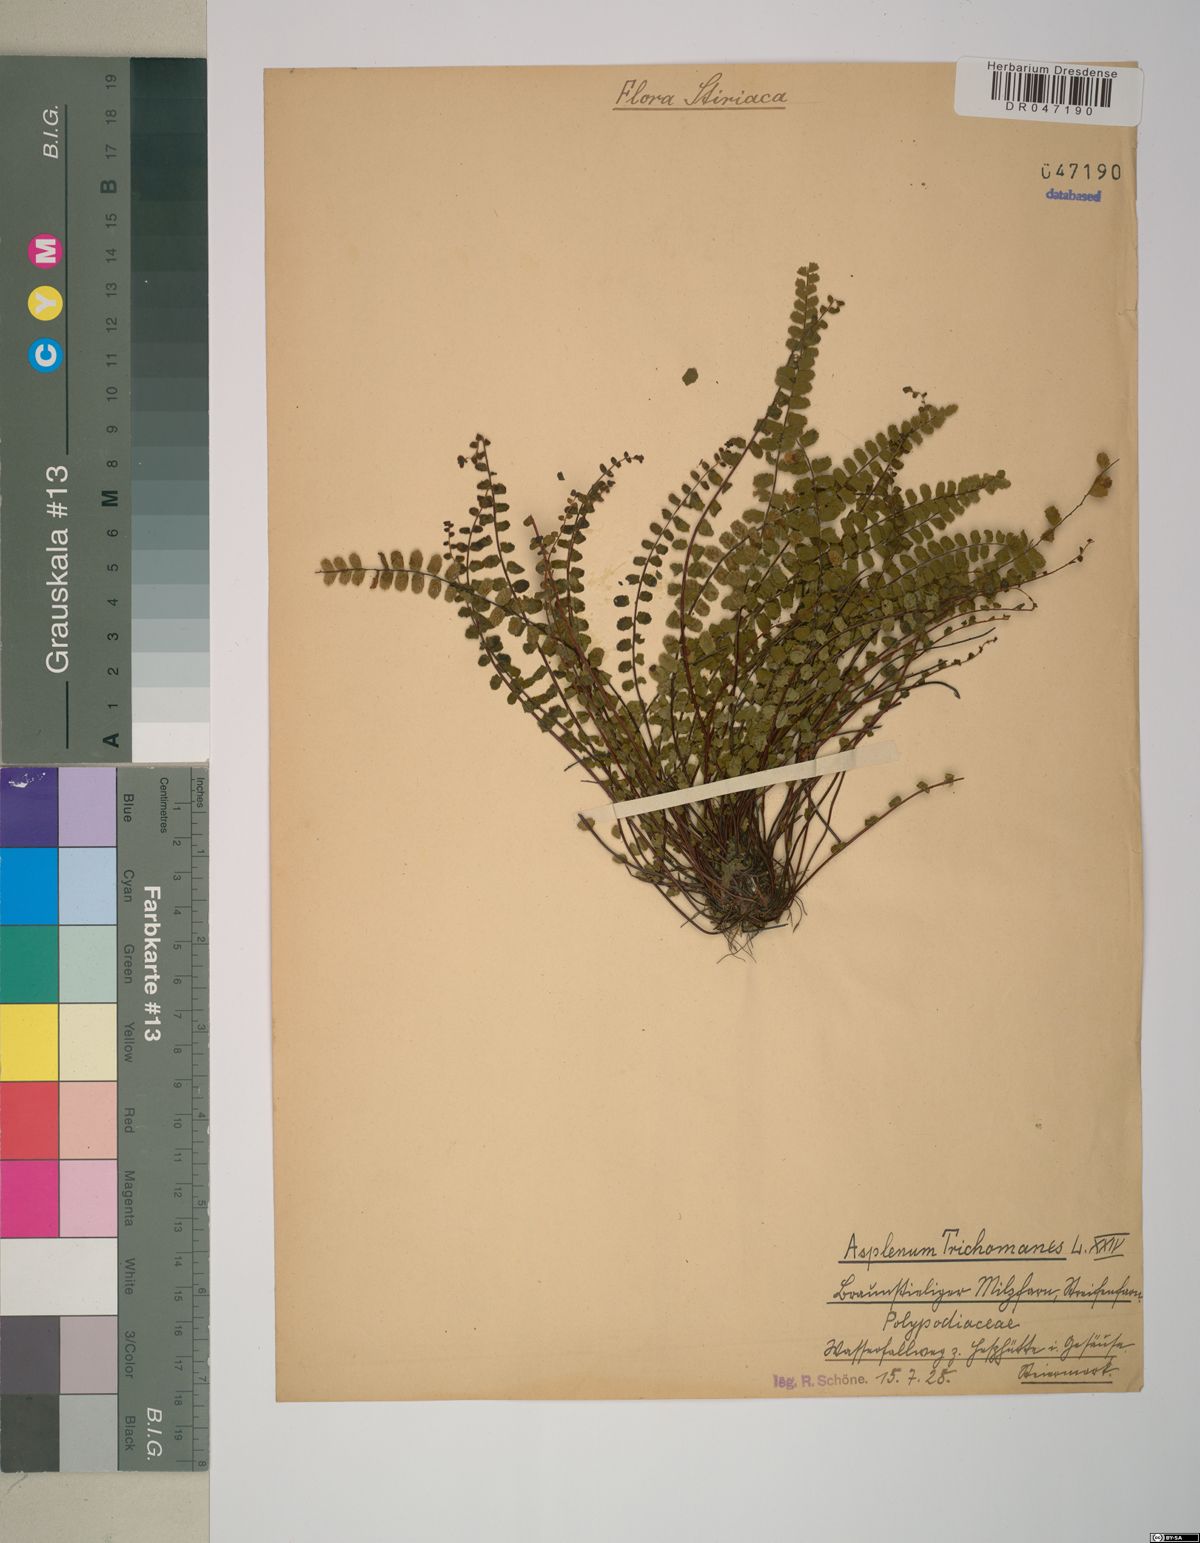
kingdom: Plantae
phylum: Tracheophyta
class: Polypodiopsida
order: Polypodiales
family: Aspleniaceae
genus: Asplenium
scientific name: Asplenium trichomanes
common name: Maidenhair spleenwort
